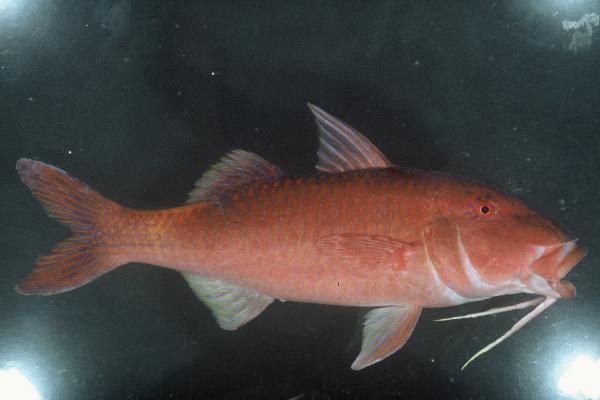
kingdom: Animalia
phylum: Chordata
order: Perciformes
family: Mullidae
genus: Parupeneus
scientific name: Parupeneus cyclostomus
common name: Goldsaddle goatfish
